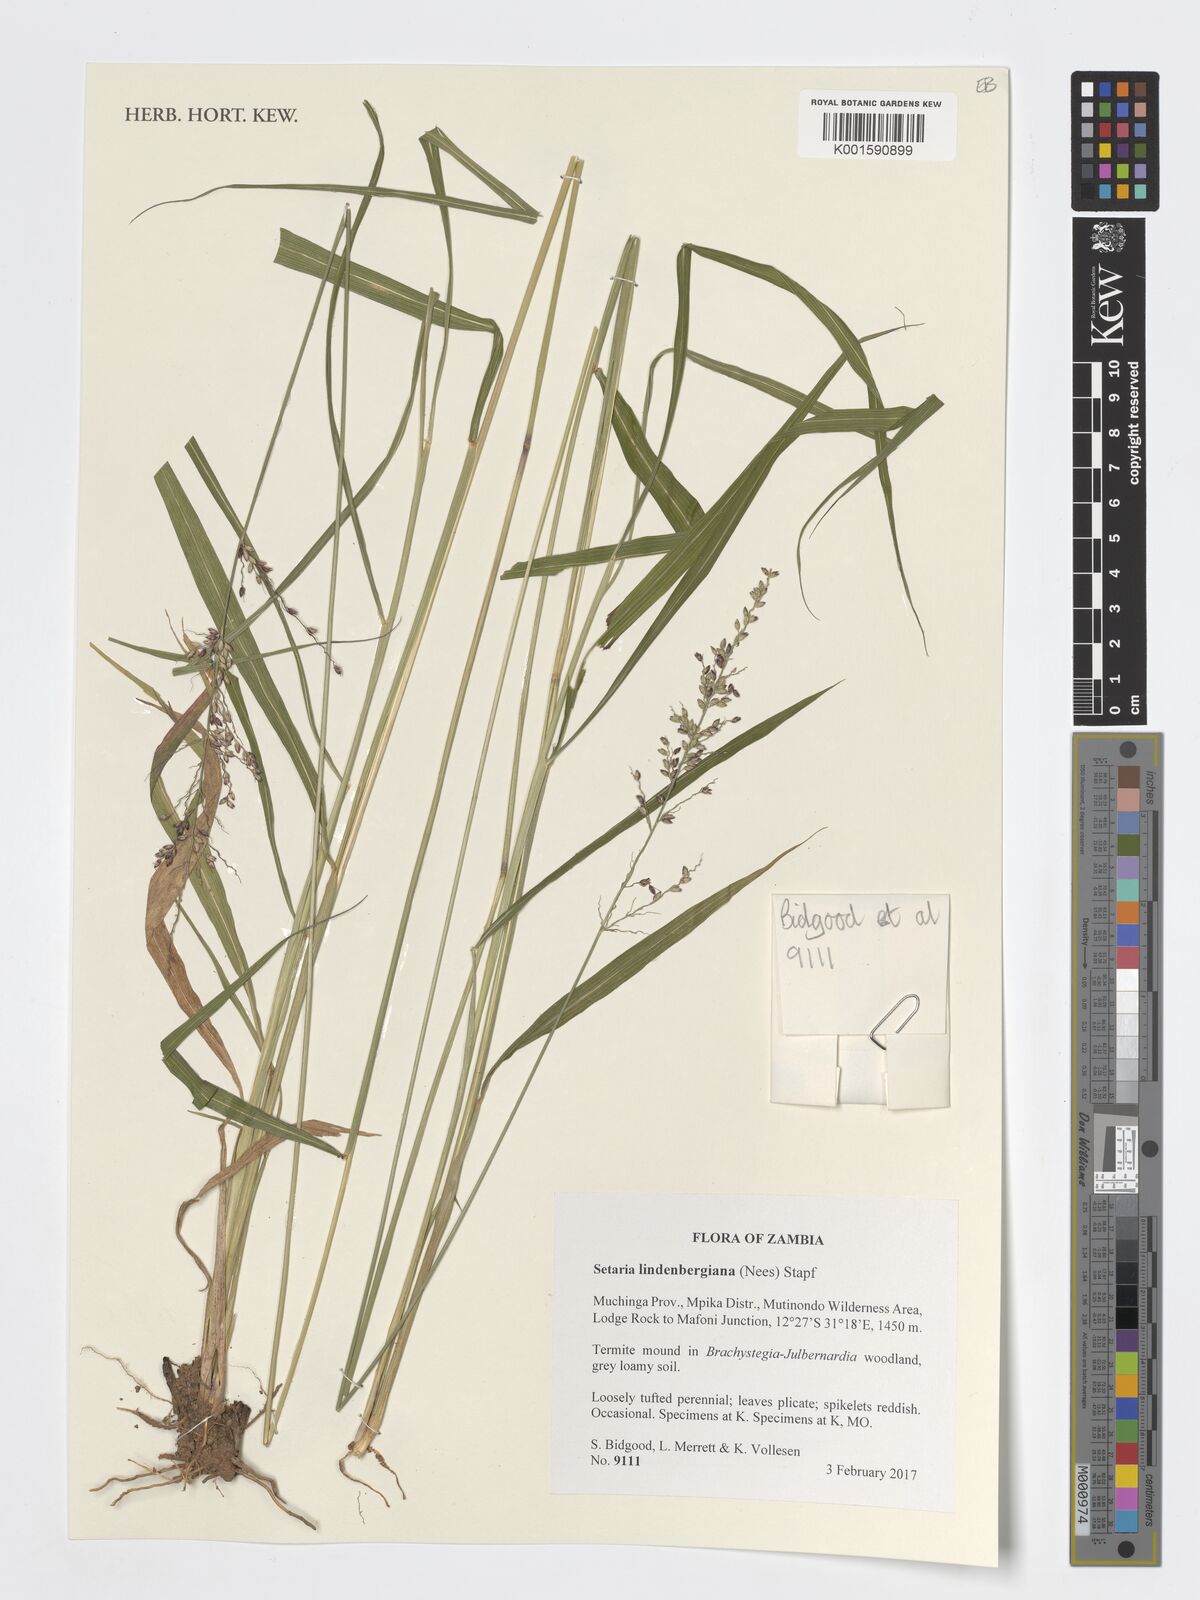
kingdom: Plantae
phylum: Tracheophyta
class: Liliopsida
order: Poales
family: Poaceae
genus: Setaria
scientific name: Setaria lindenbergiana
